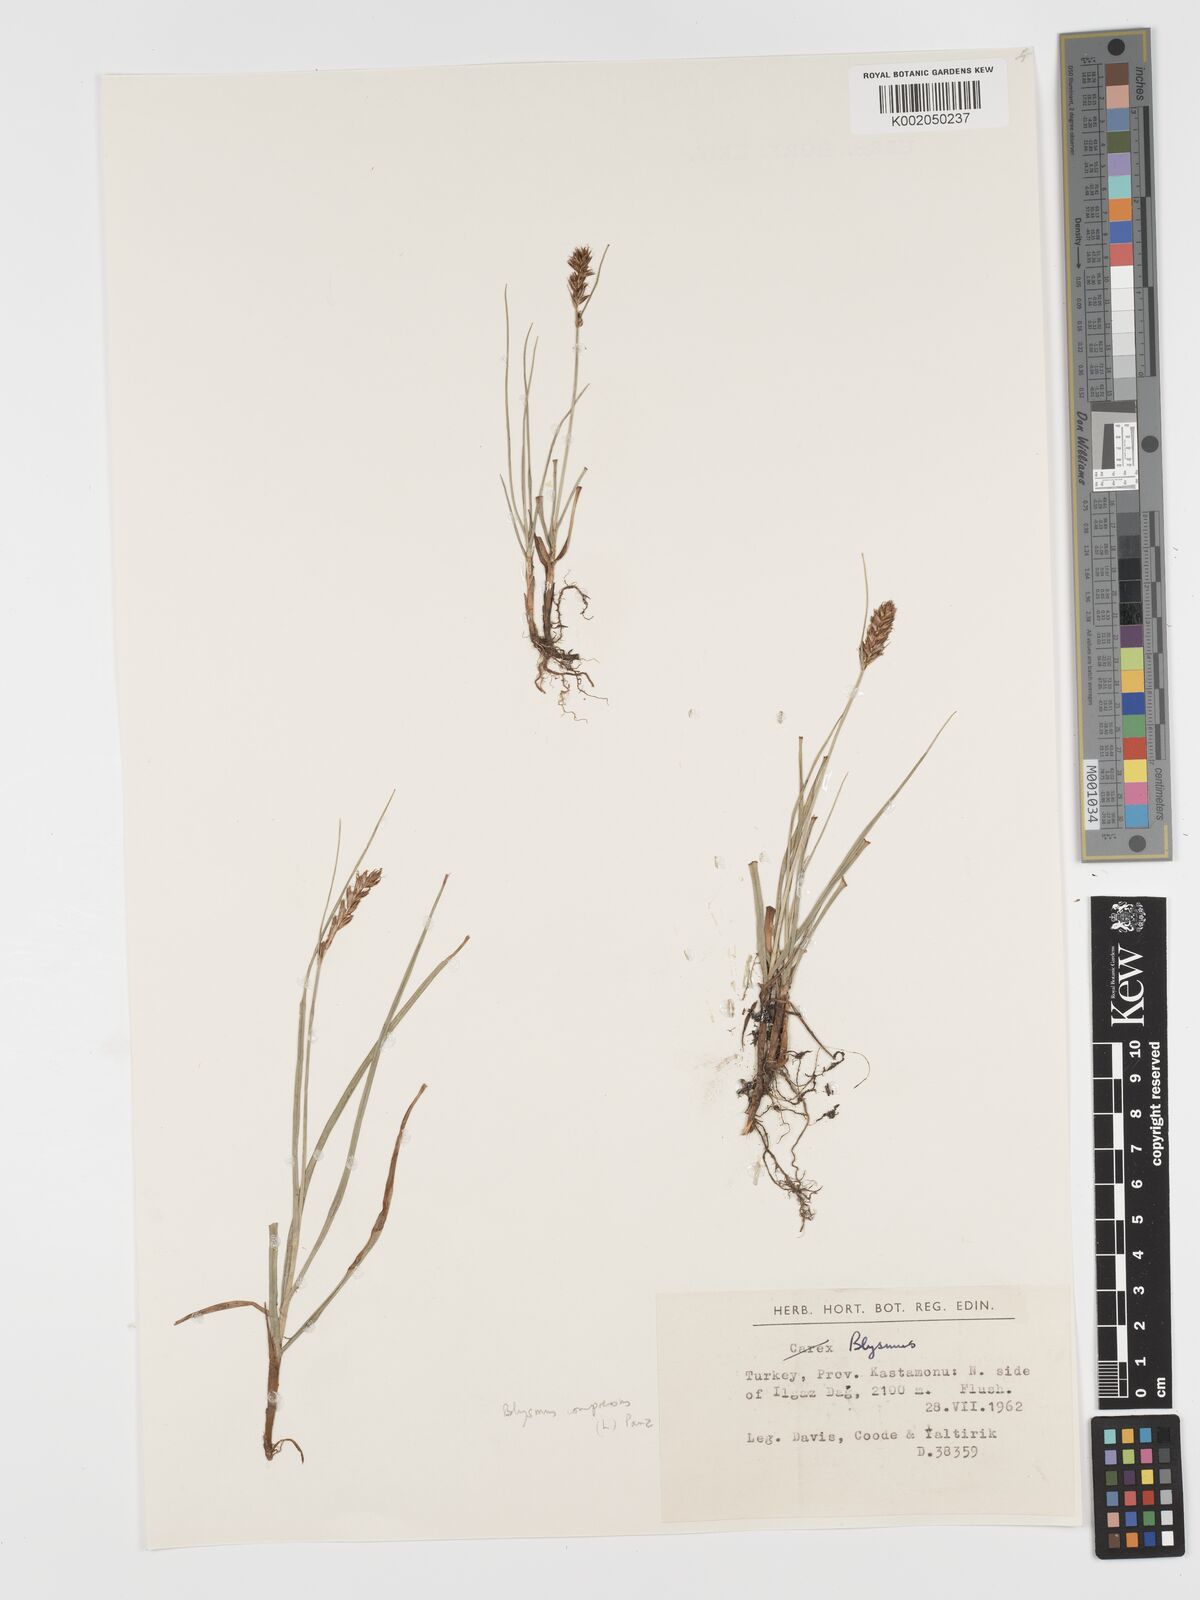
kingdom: Plantae
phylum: Tracheophyta
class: Liliopsida
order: Poales
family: Cyperaceae
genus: Blysmus
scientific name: Blysmus compressus
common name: Flat-sedge
